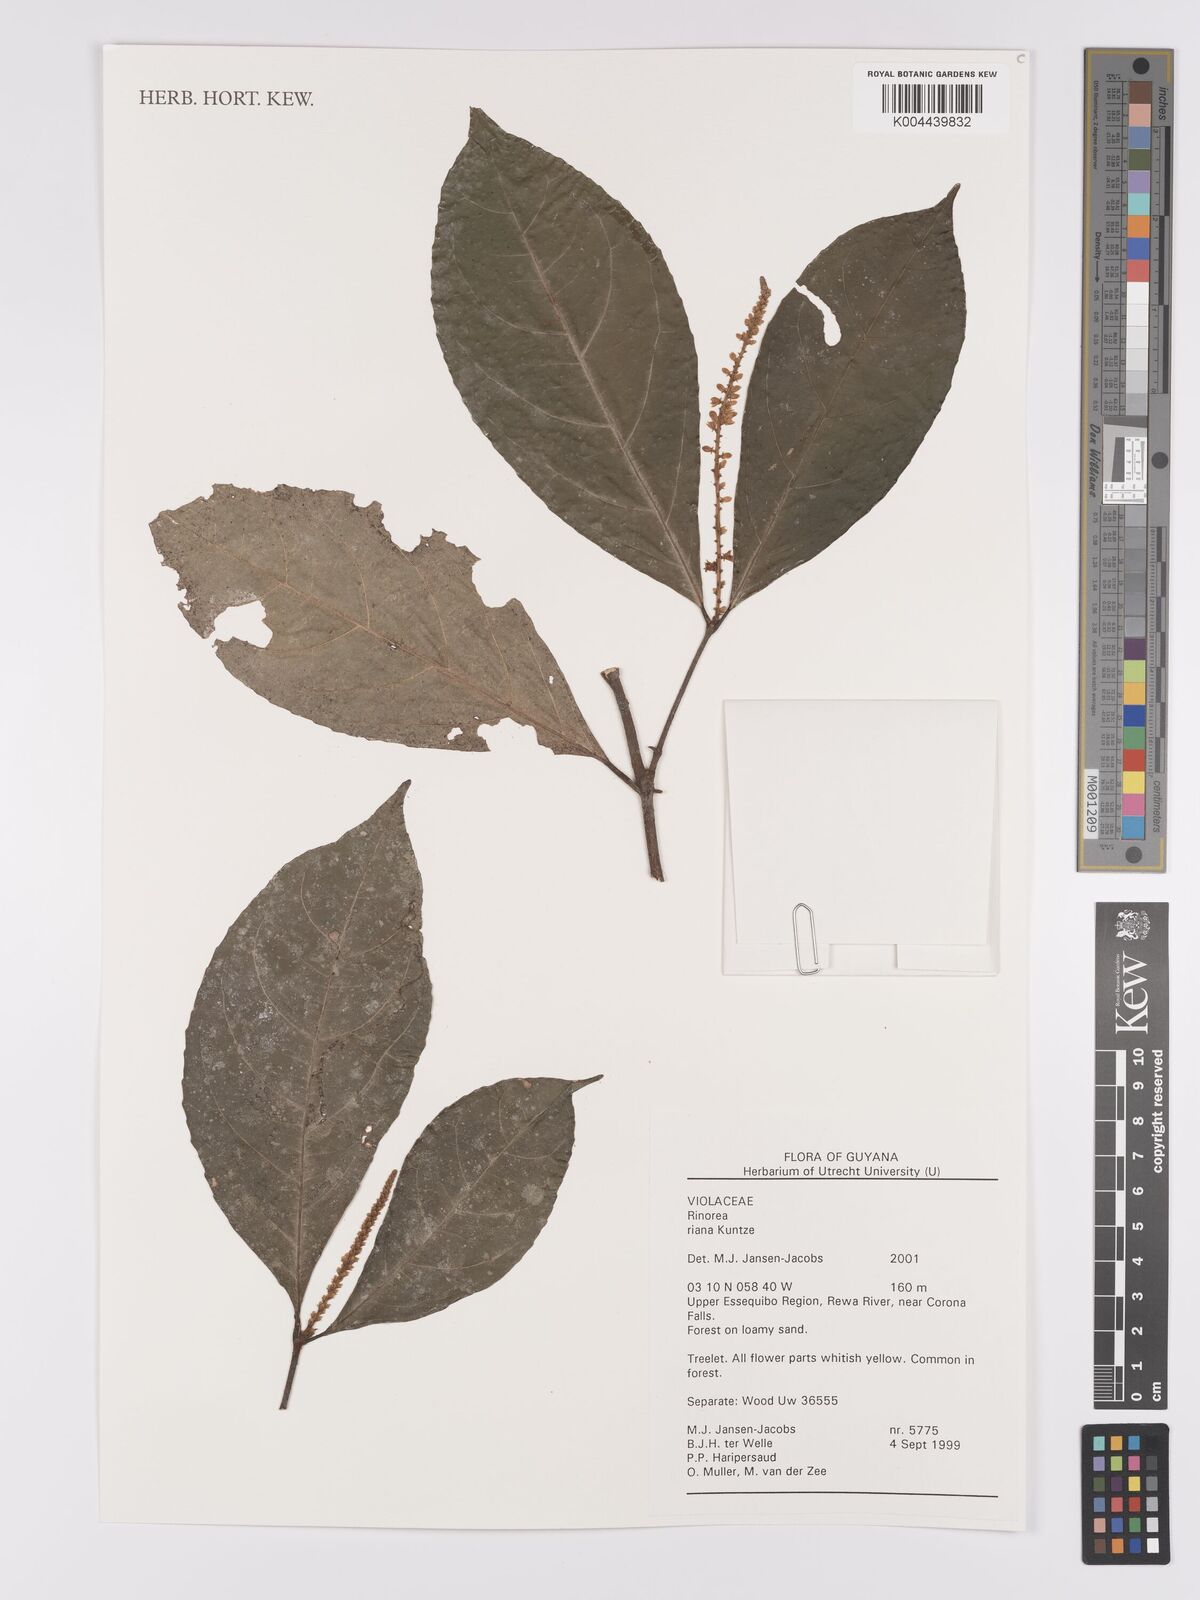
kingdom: Plantae
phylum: Tracheophyta
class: Magnoliopsida
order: Malpighiales
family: Violaceae
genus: Rinorea
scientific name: Rinorea riana
